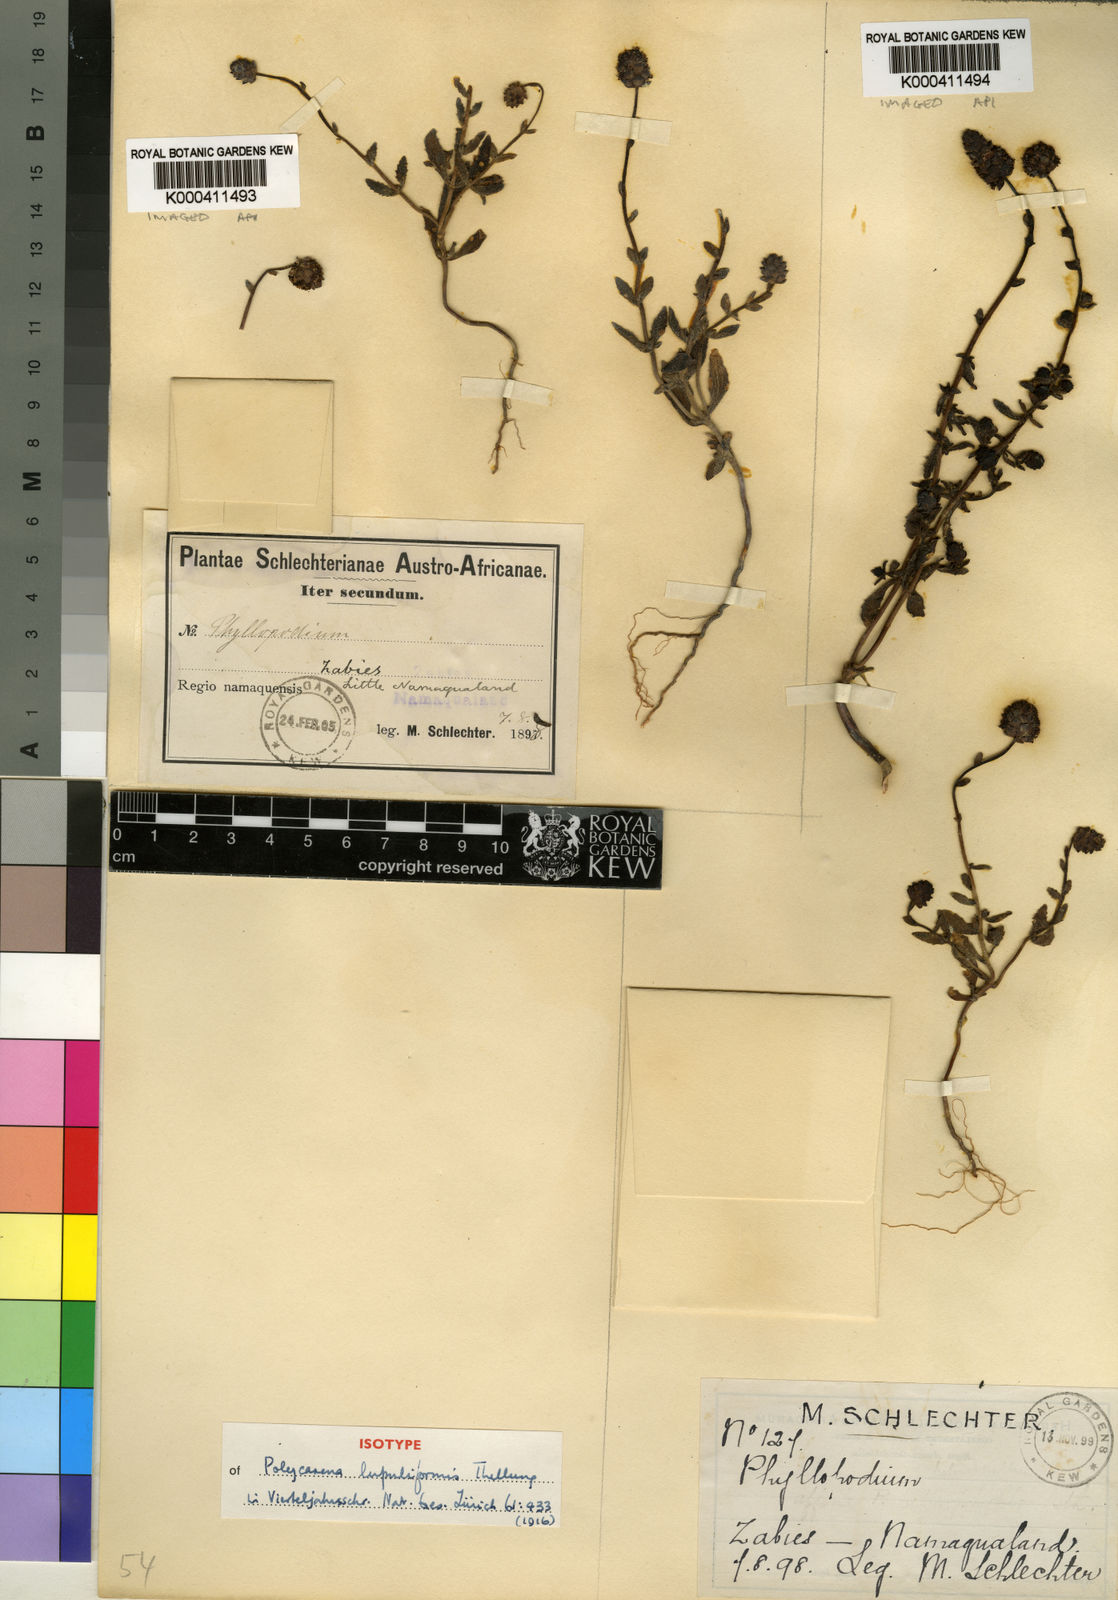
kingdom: Plantae
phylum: Tracheophyta
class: Magnoliopsida
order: Lamiales
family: Scrophulariaceae
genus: Phyllopodium
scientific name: Phyllopodium
